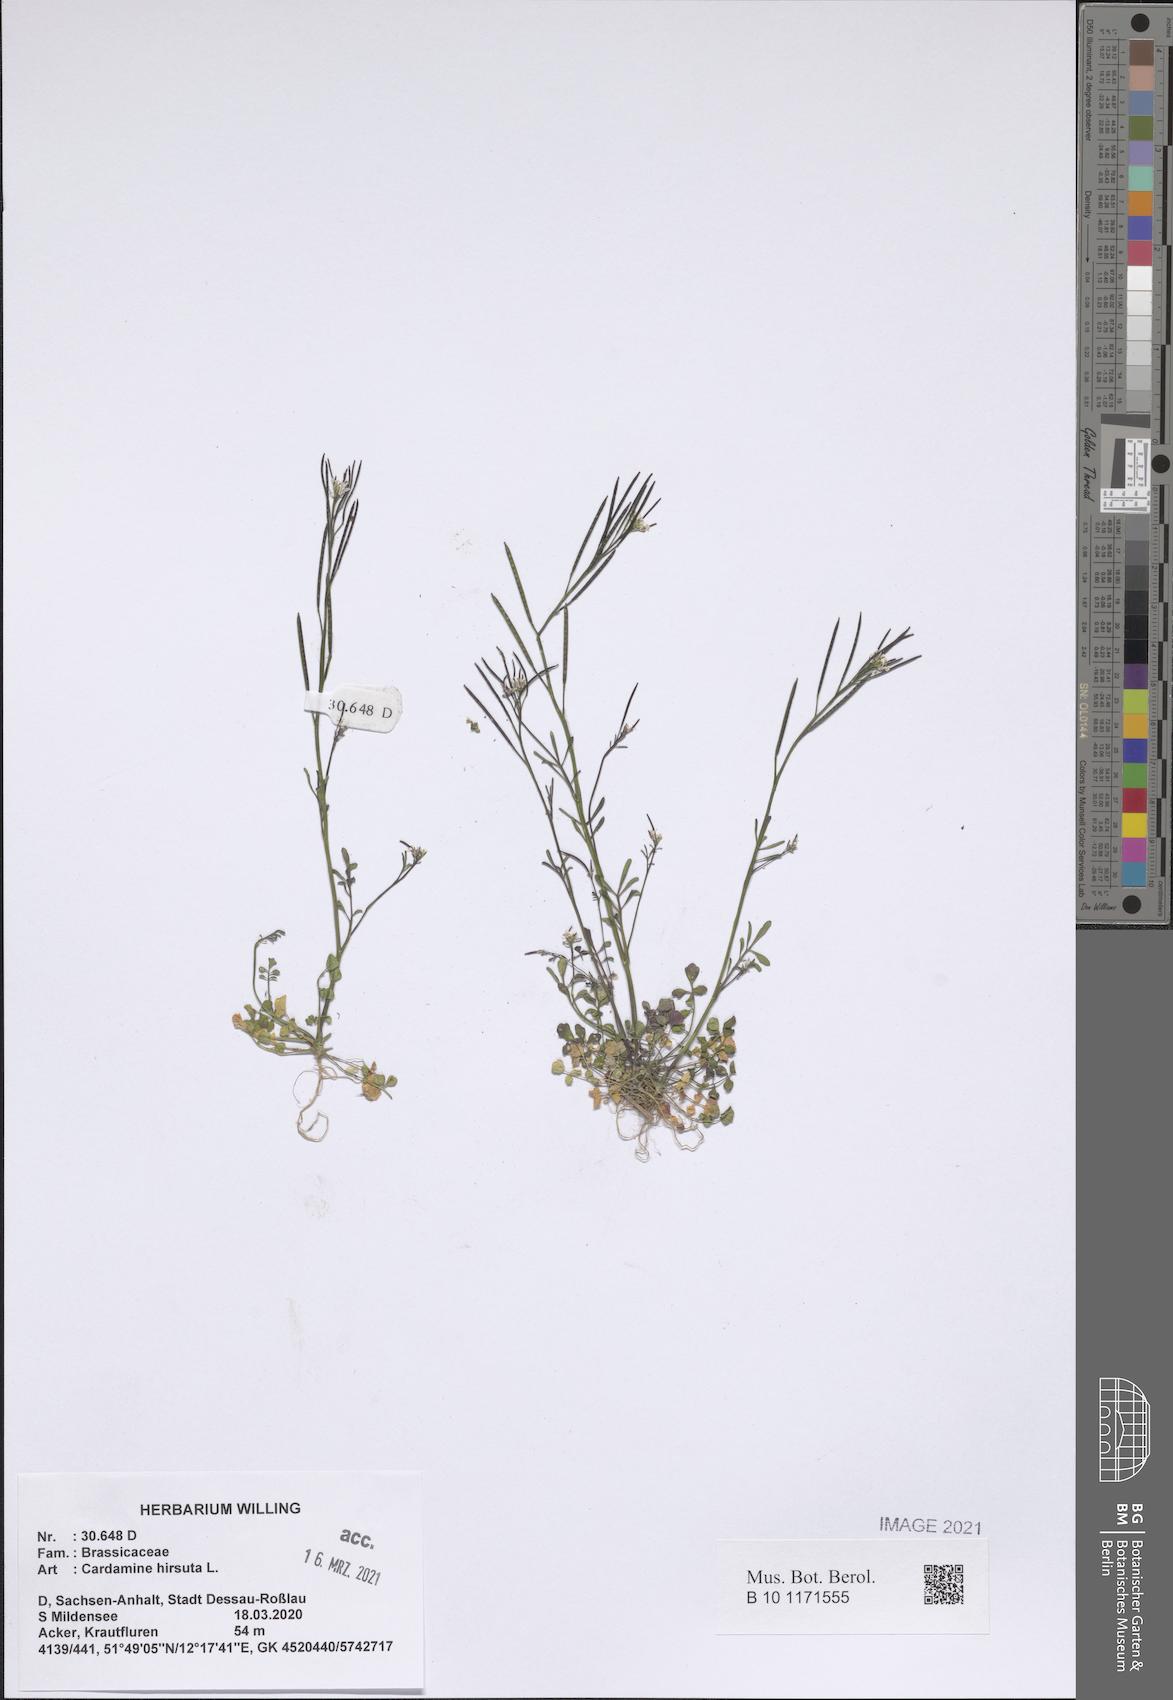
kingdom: Plantae
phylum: Tracheophyta
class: Magnoliopsida
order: Brassicales
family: Brassicaceae
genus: Cardamine
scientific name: Cardamine hirsuta
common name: Hairy bittercress
